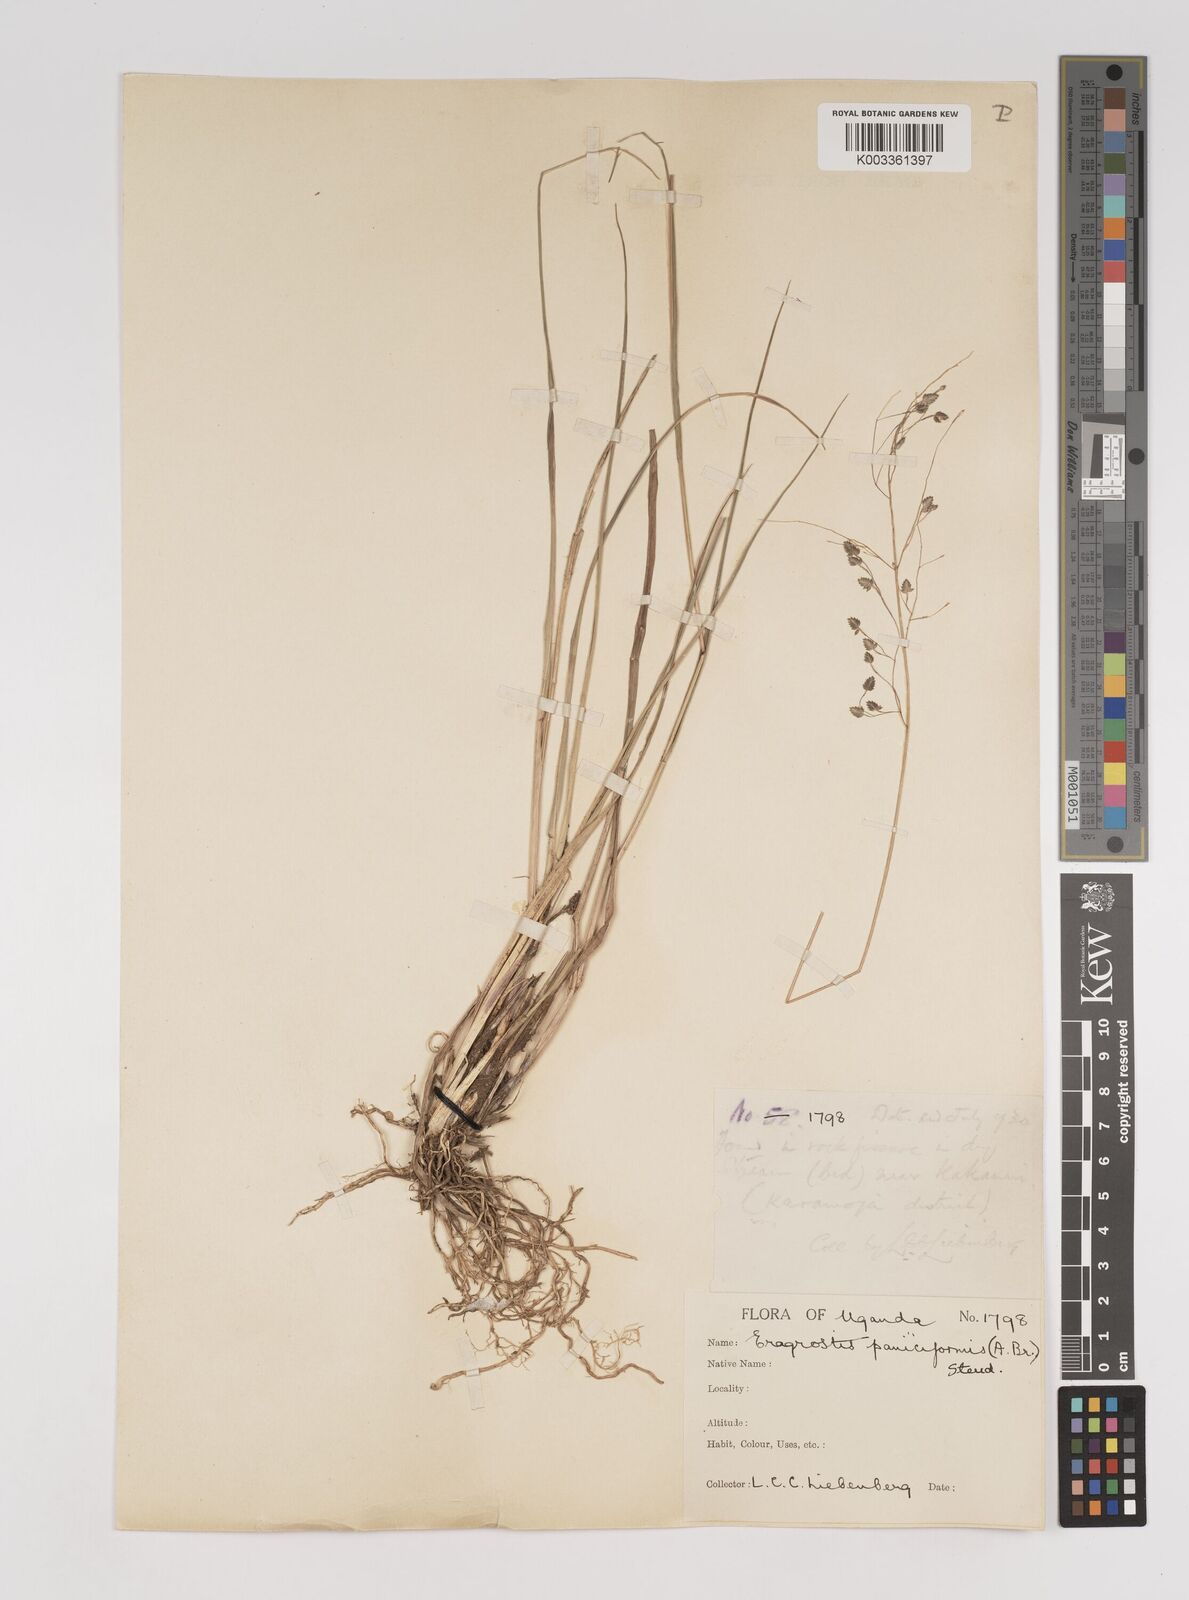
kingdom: Plantae
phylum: Tracheophyta
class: Liliopsida
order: Poales
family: Poaceae
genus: Eragrostis
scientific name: Eragrostis paniciformis
